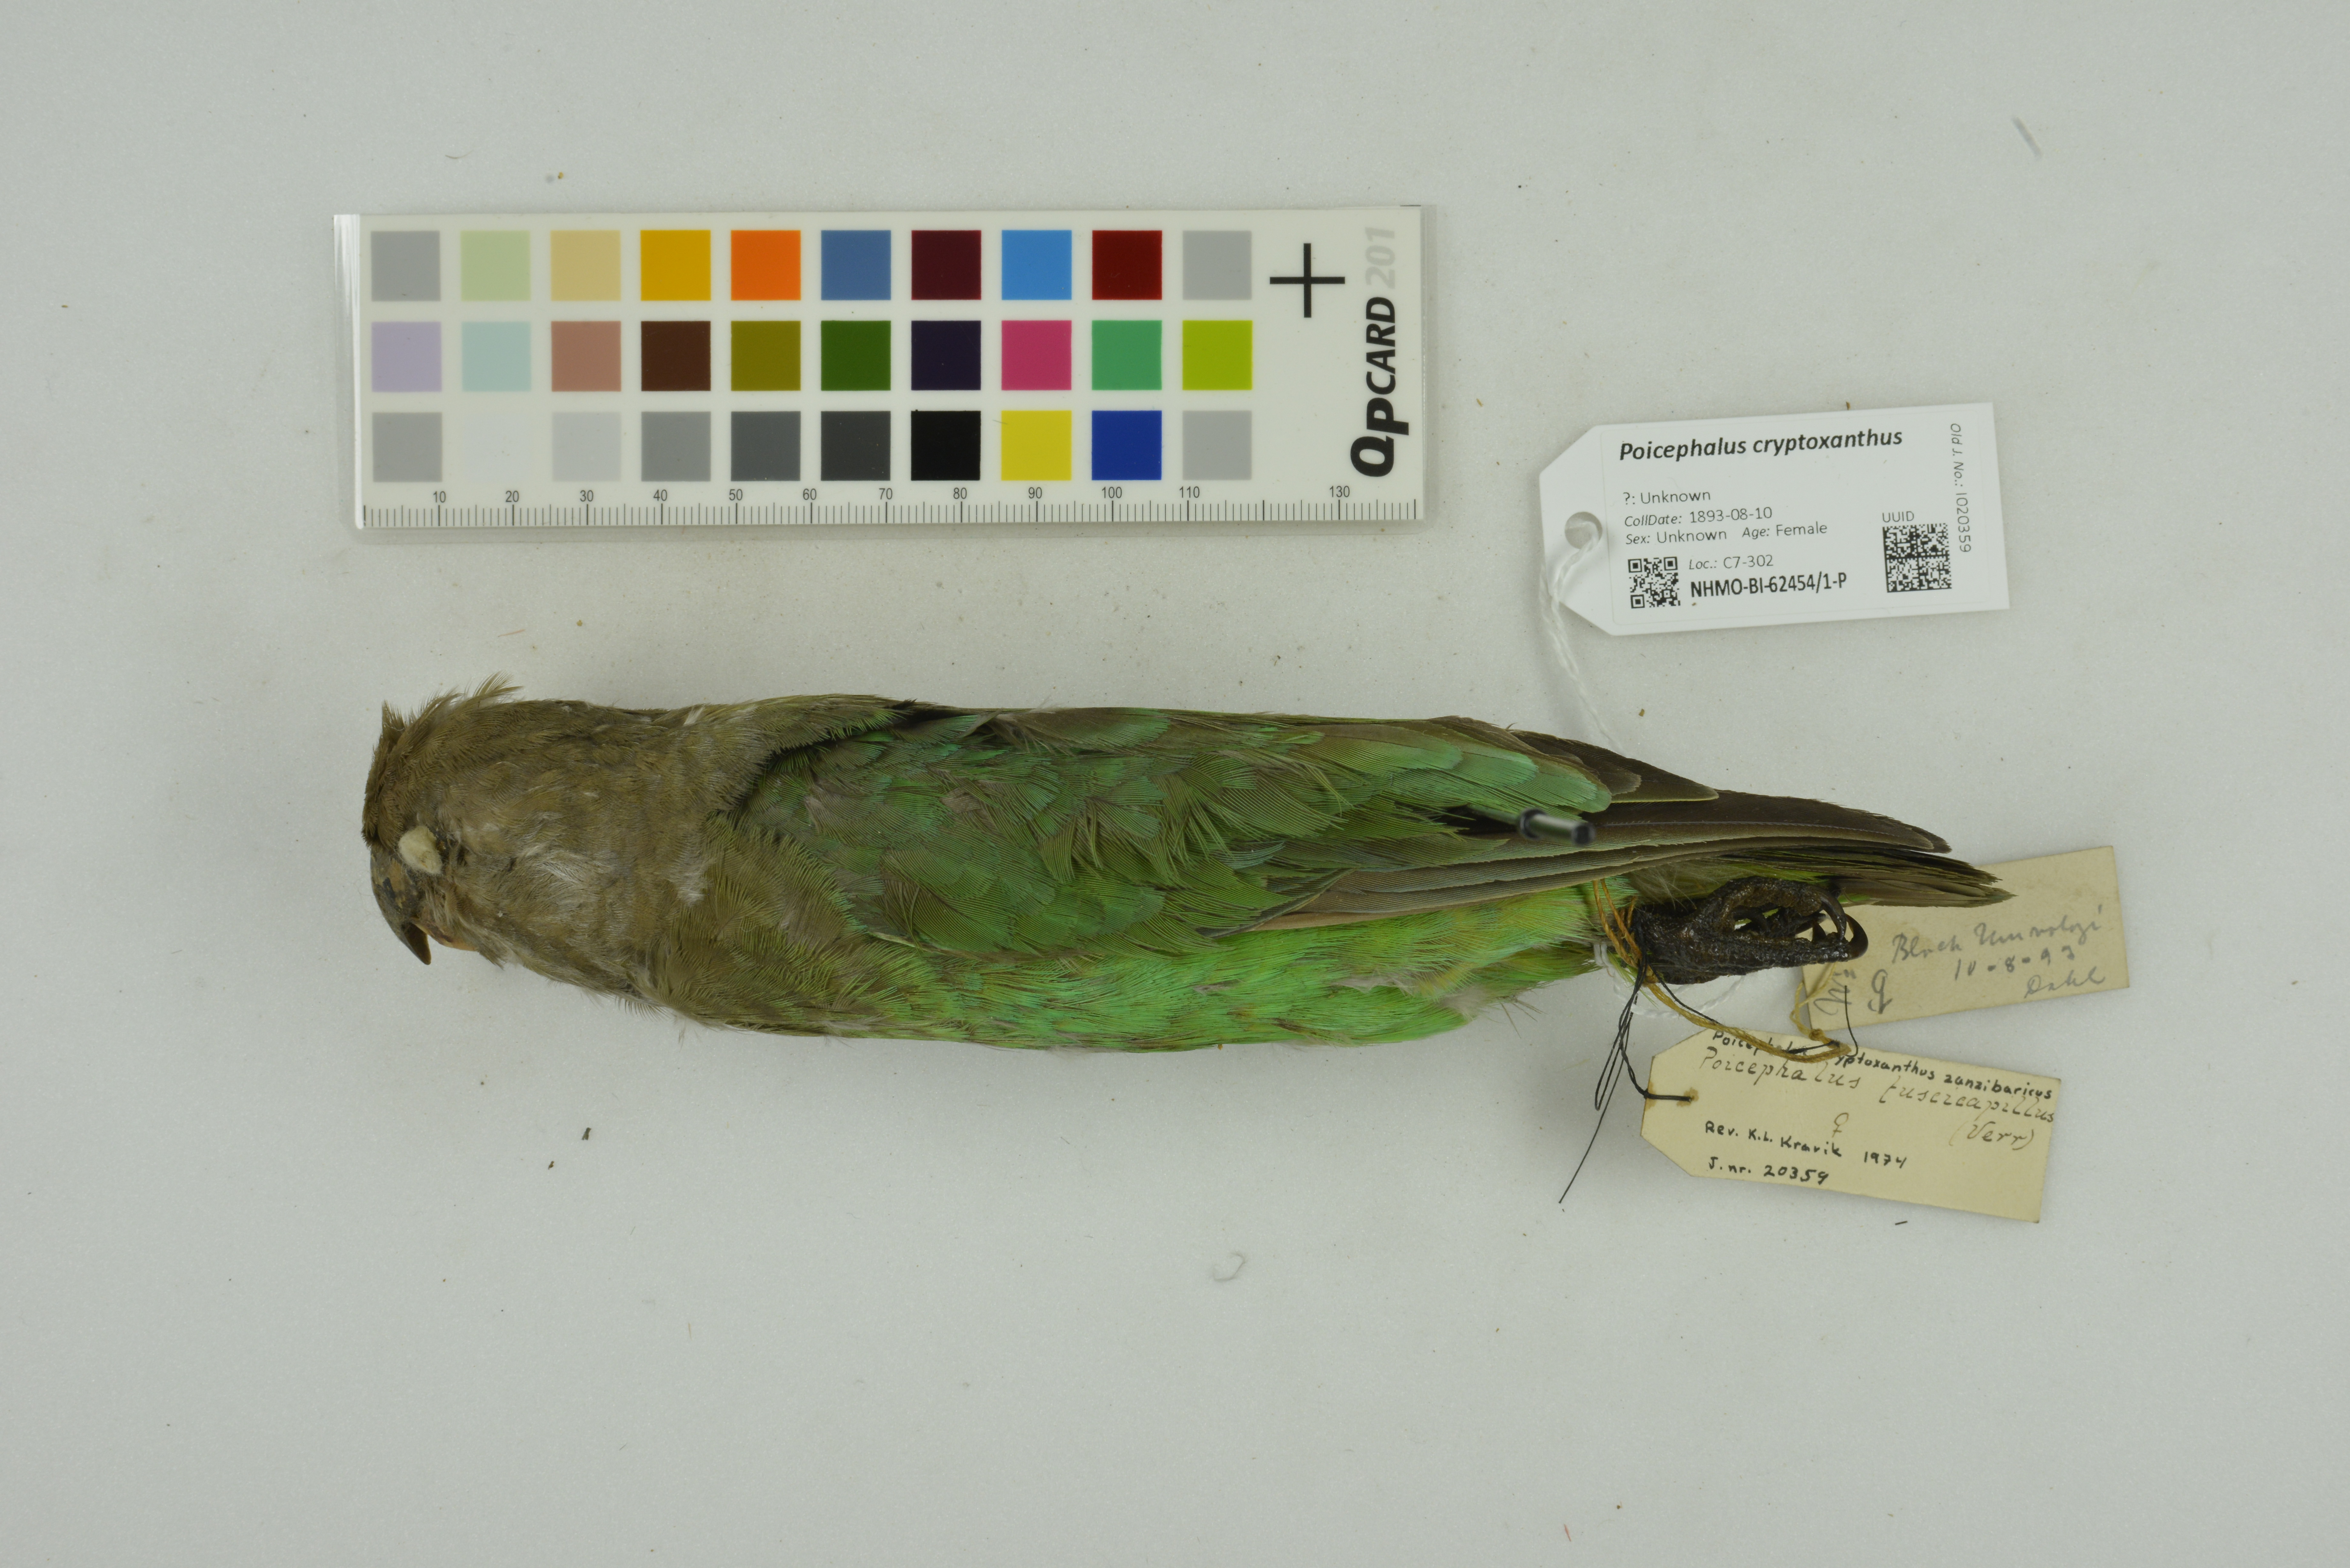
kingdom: Animalia
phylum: Chordata
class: Aves
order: Psittaciformes
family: Psittacidae
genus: Poicephalus
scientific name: Poicephalus cryptoxanthus
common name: Brown-headed parrot
